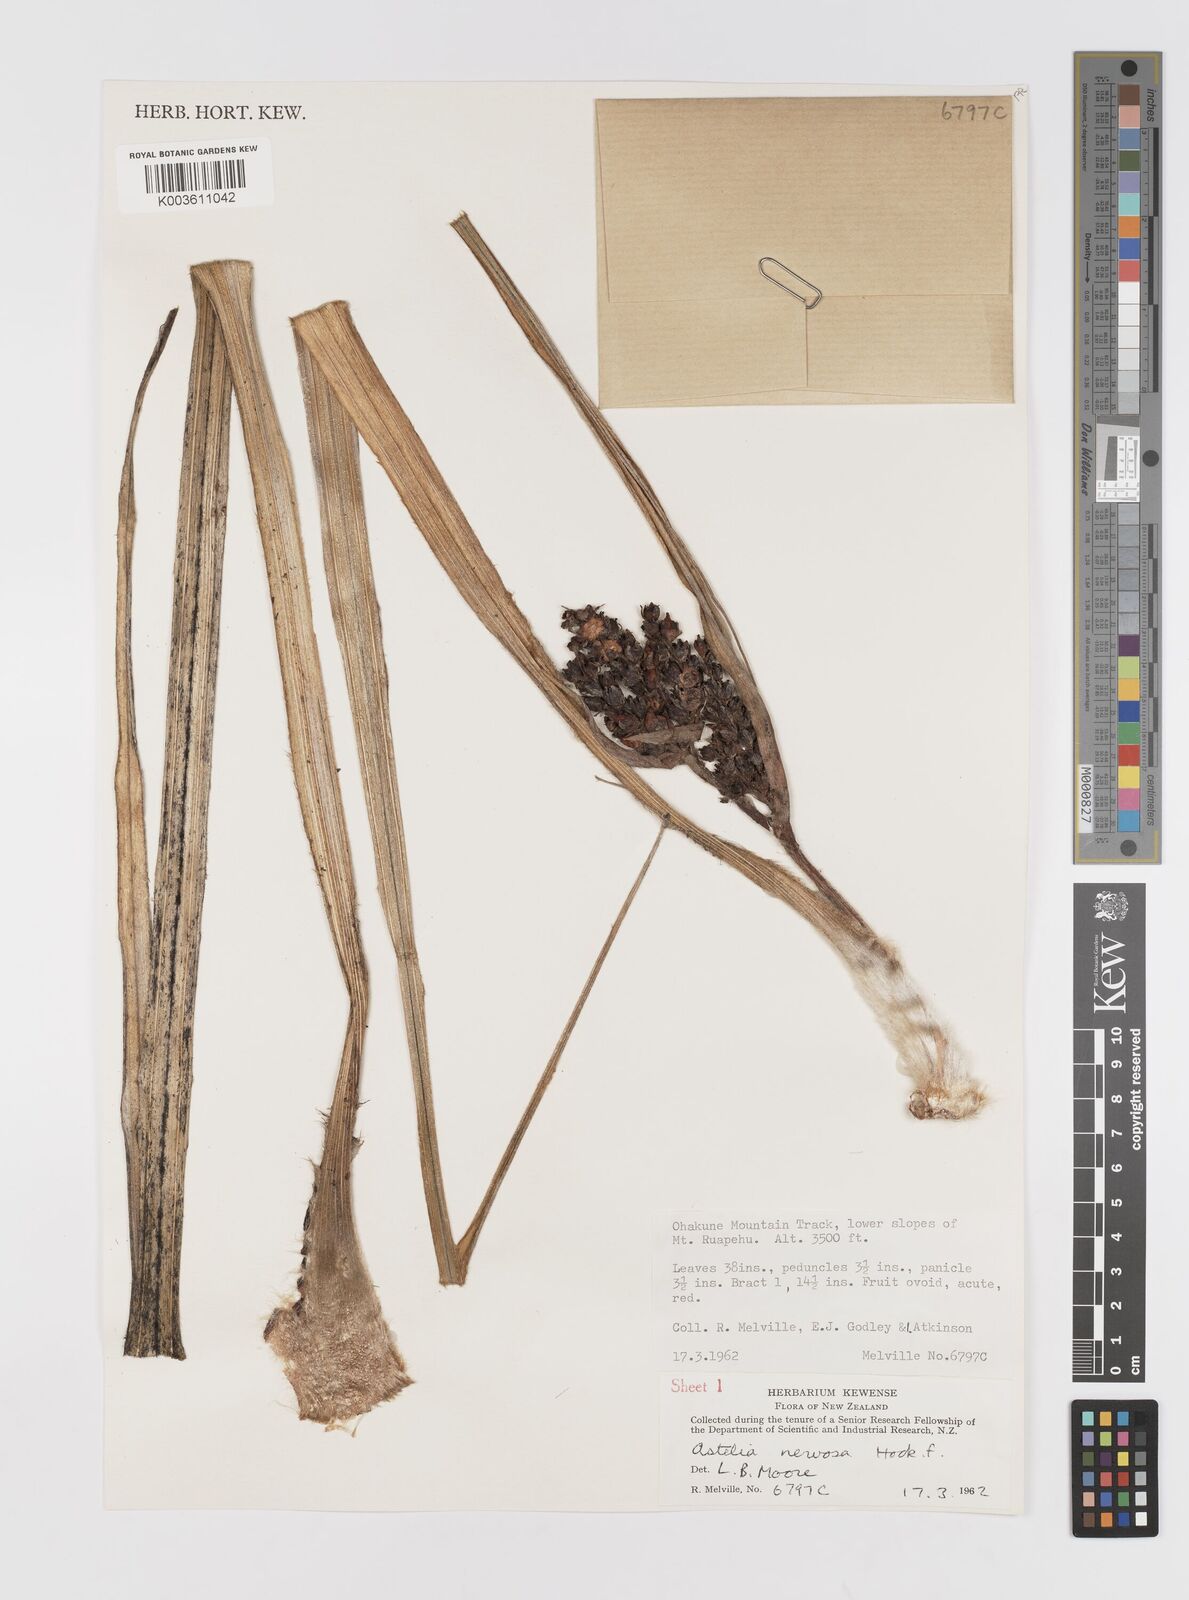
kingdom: Plantae
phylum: Tracheophyta
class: Liliopsida
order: Asparagales
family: Asteliaceae
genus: Astelia
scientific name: Astelia nervosa
